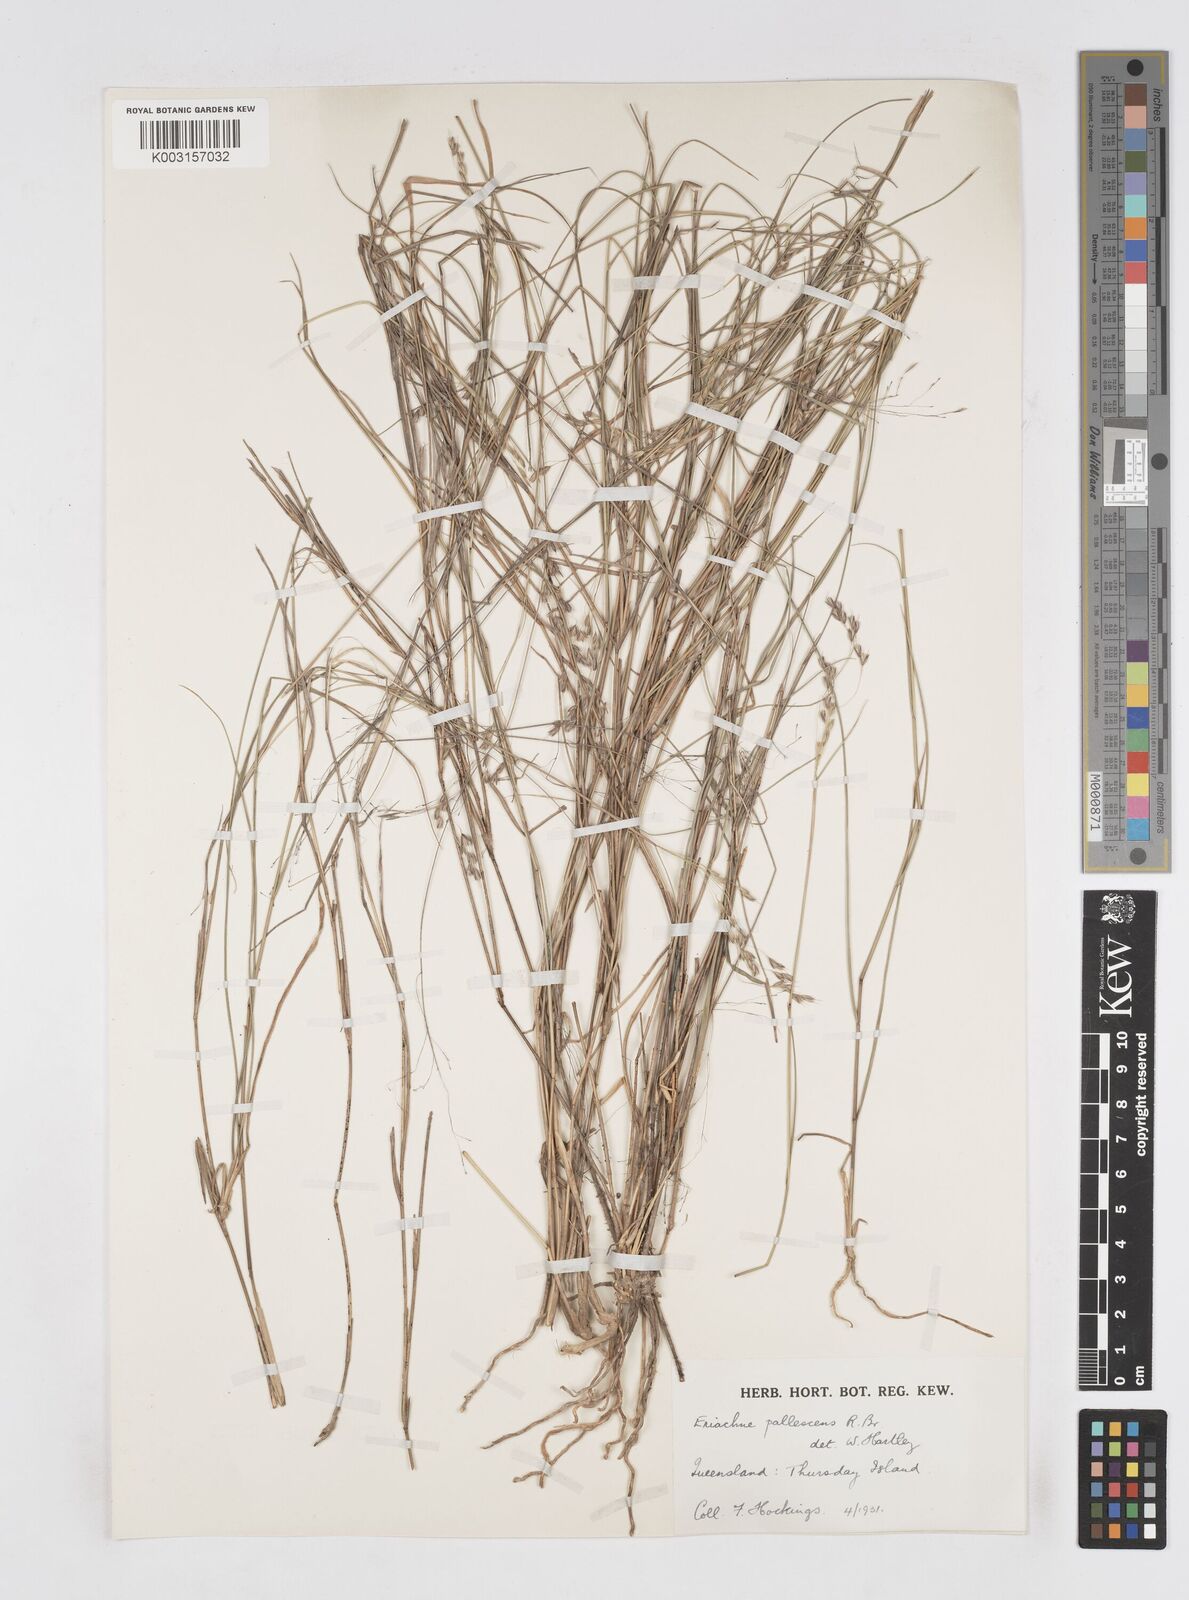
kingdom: Plantae
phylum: Tracheophyta
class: Liliopsida
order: Poales
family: Poaceae
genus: Eriachne
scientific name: Eriachne pallescens
